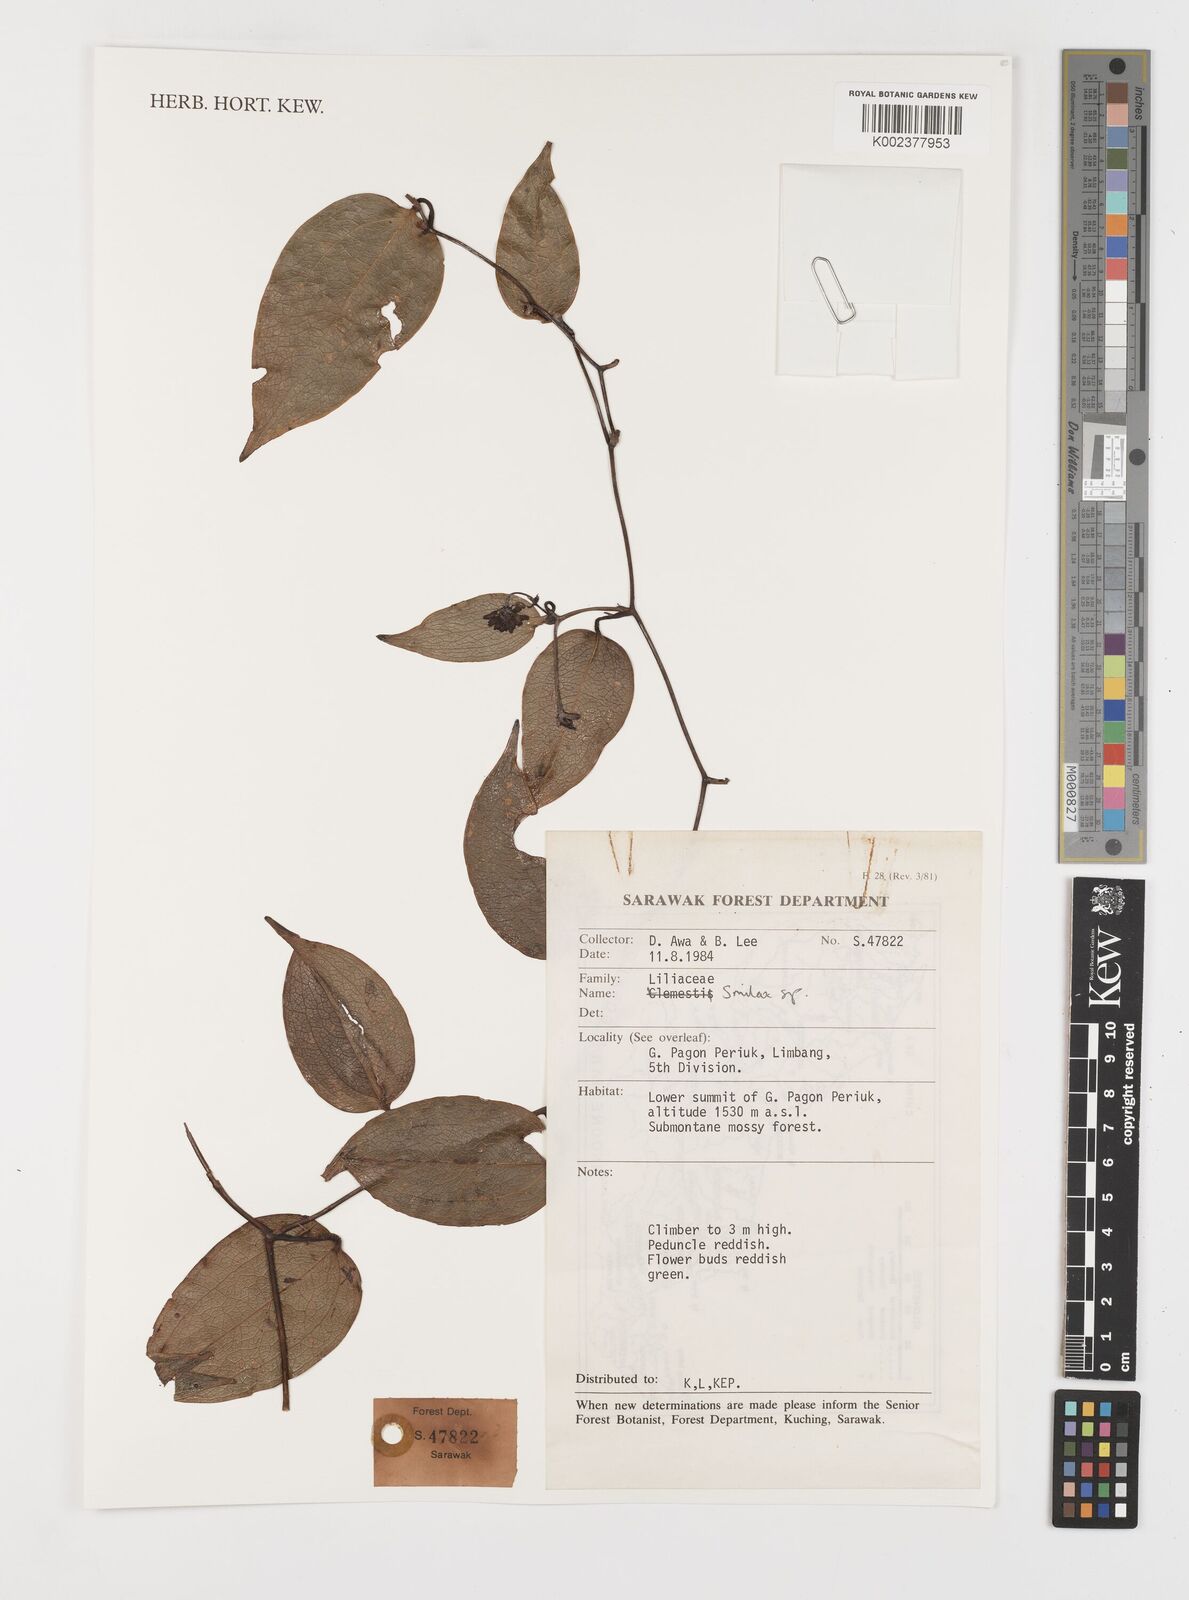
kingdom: Plantae
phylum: Tracheophyta
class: Liliopsida
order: Liliales
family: Smilacaceae
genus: Smilax
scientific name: Smilax
